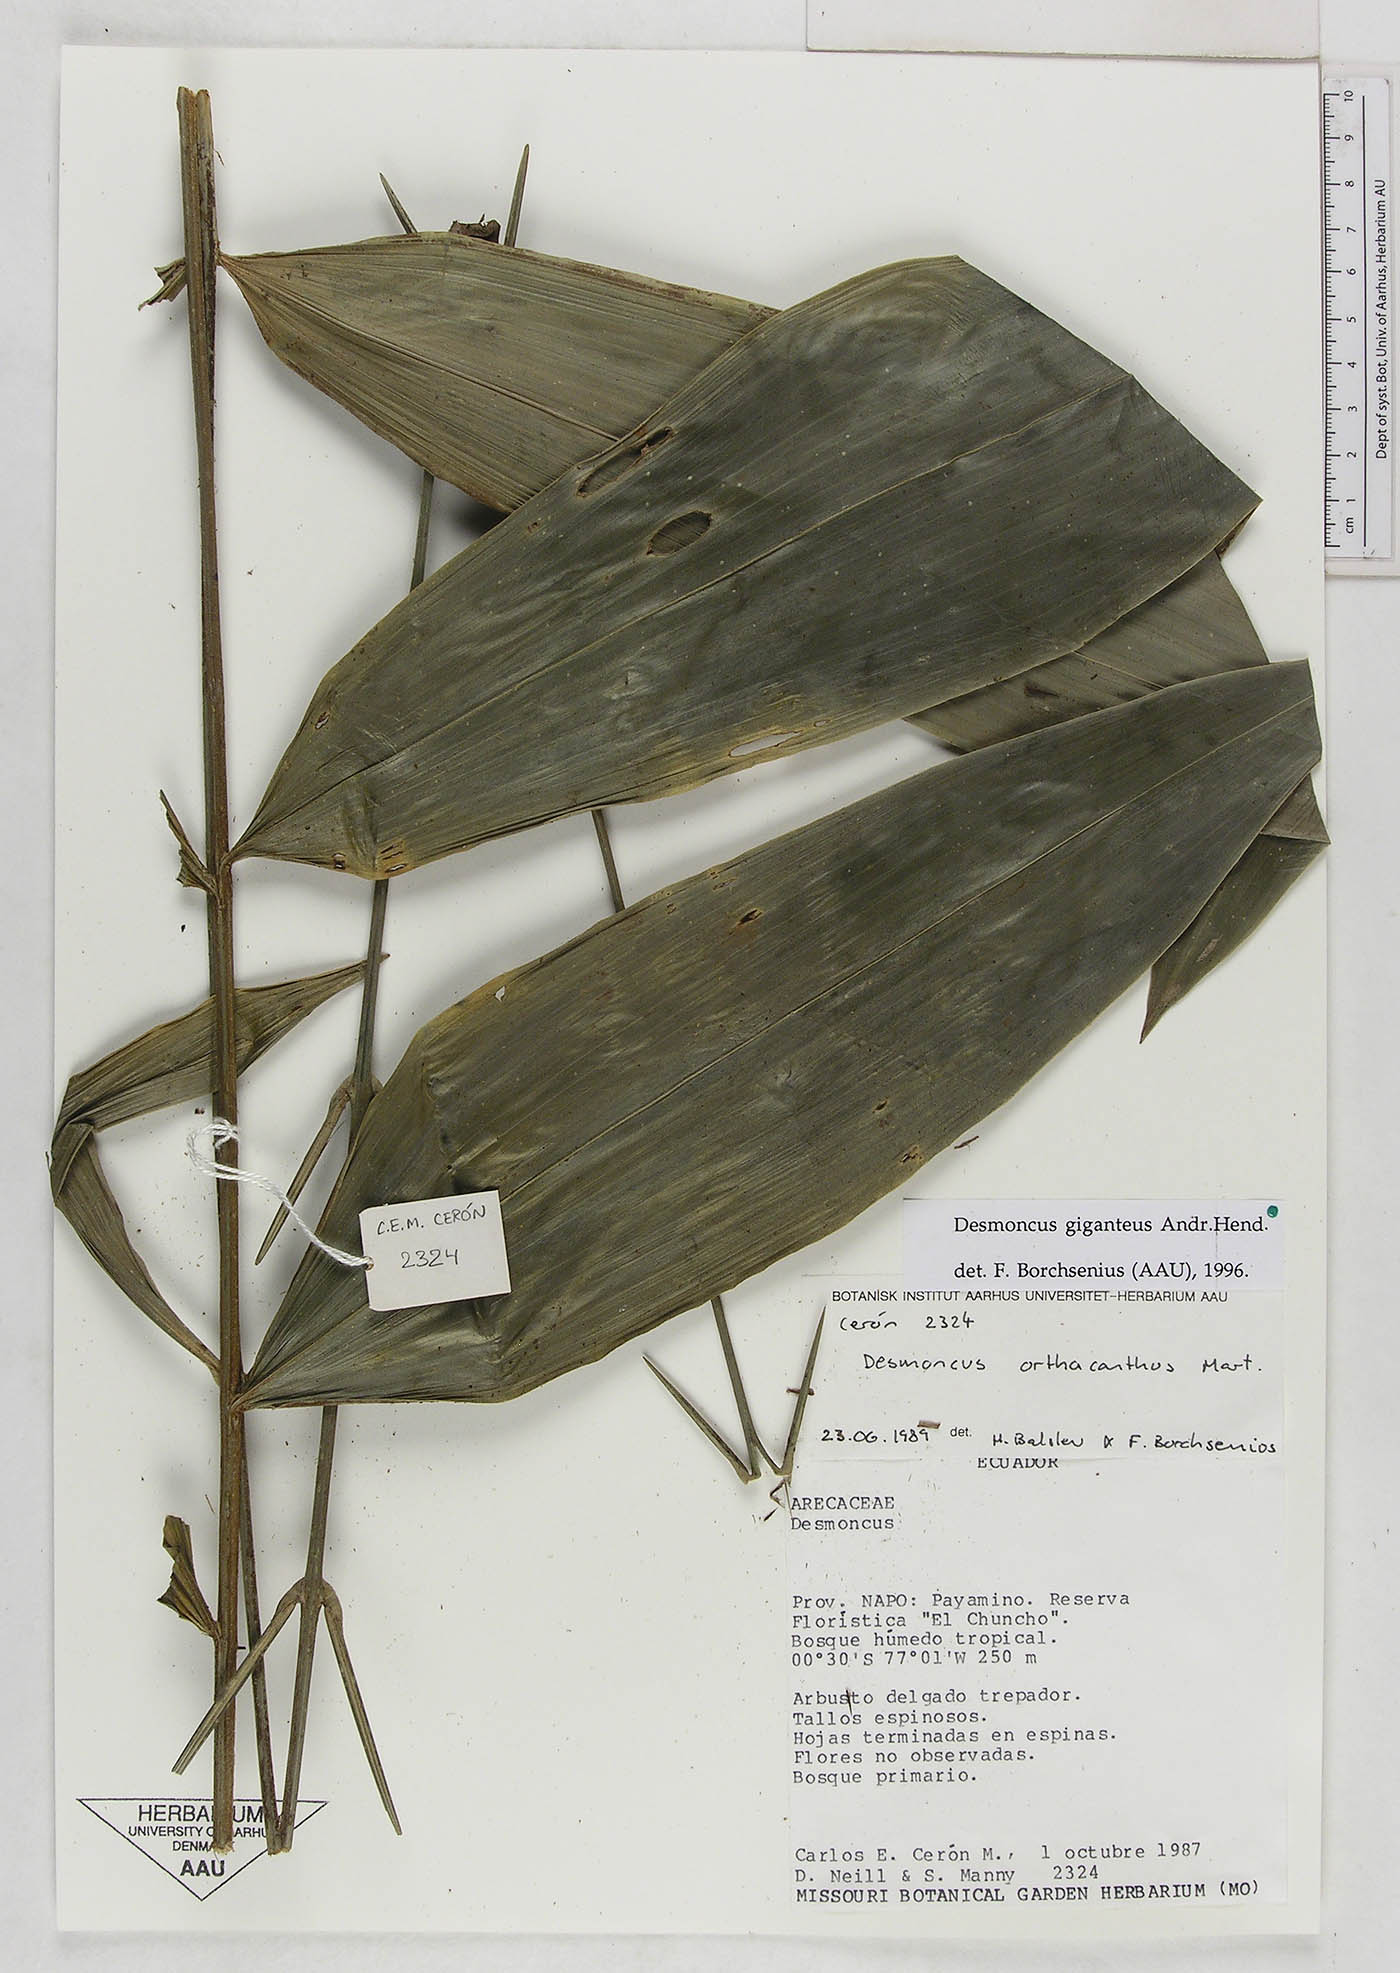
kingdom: Plantae
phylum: Tracheophyta
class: Liliopsida
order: Arecales
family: Arecaceae
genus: Desmoncus
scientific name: Desmoncus giganteus
